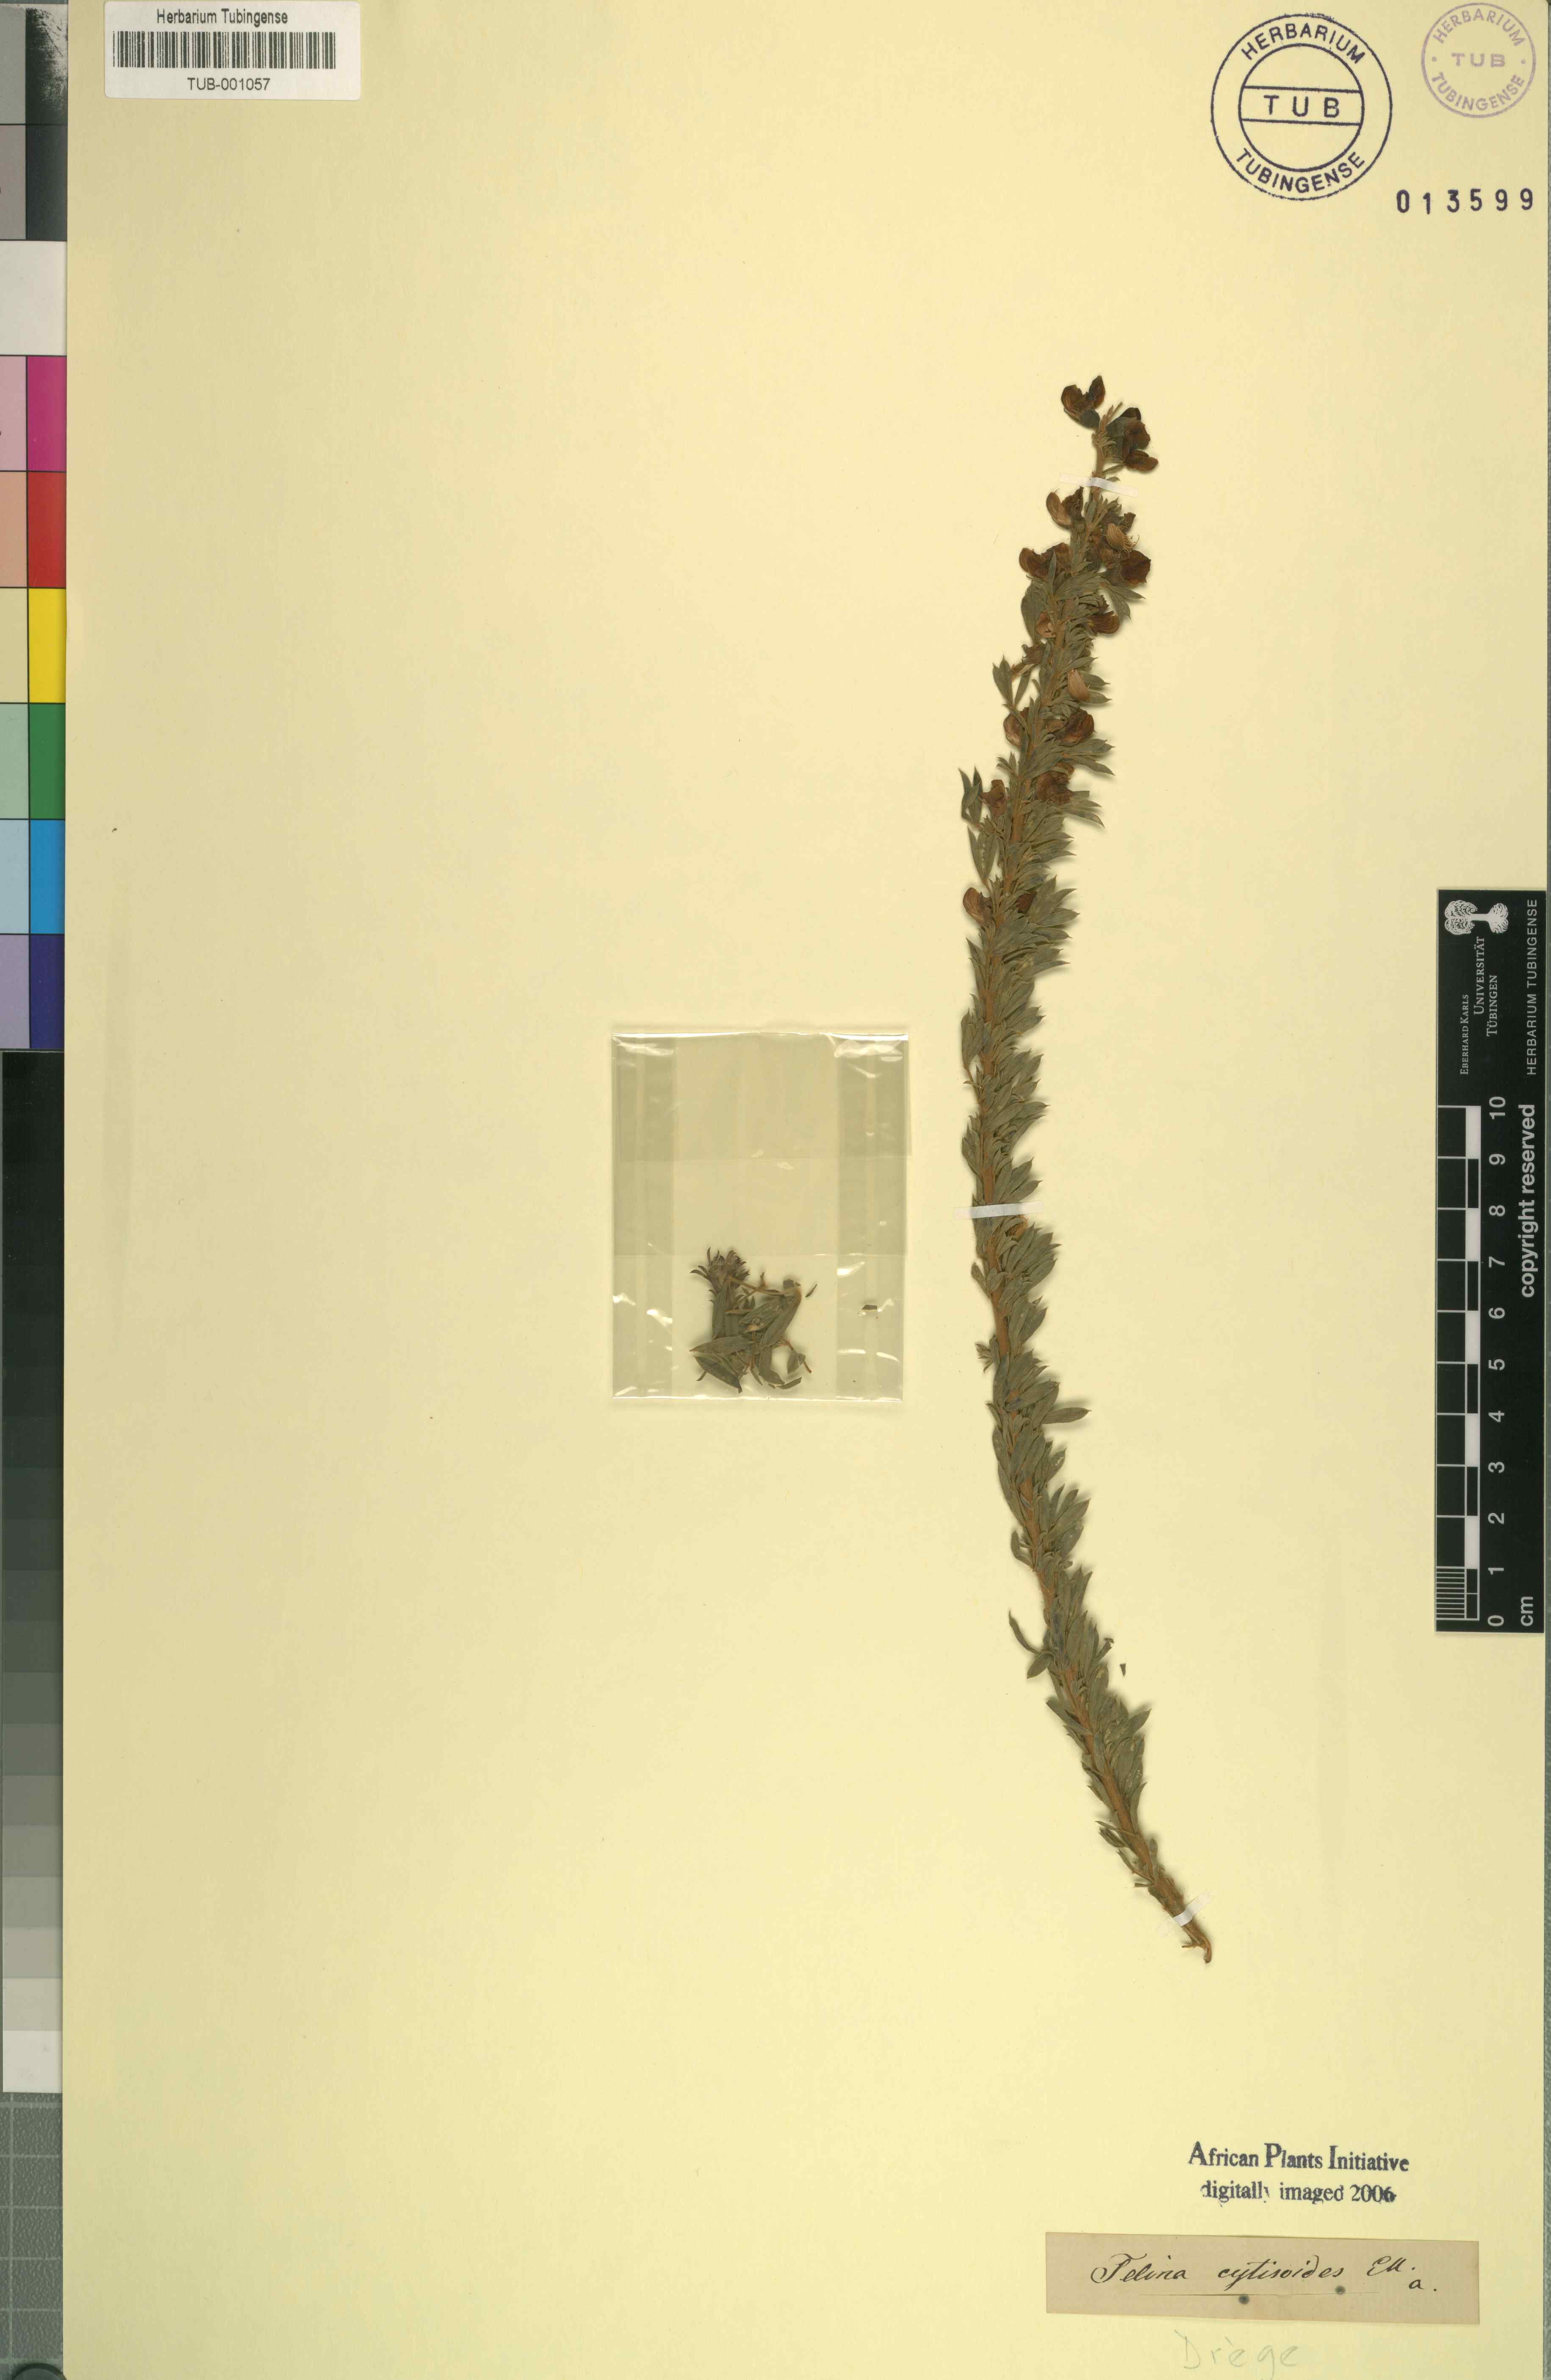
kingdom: Plantae
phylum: Tracheophyta
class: Magnoliopsida
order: Fabales
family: Fabaceae
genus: Lotononis
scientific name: Lotononis stricta
